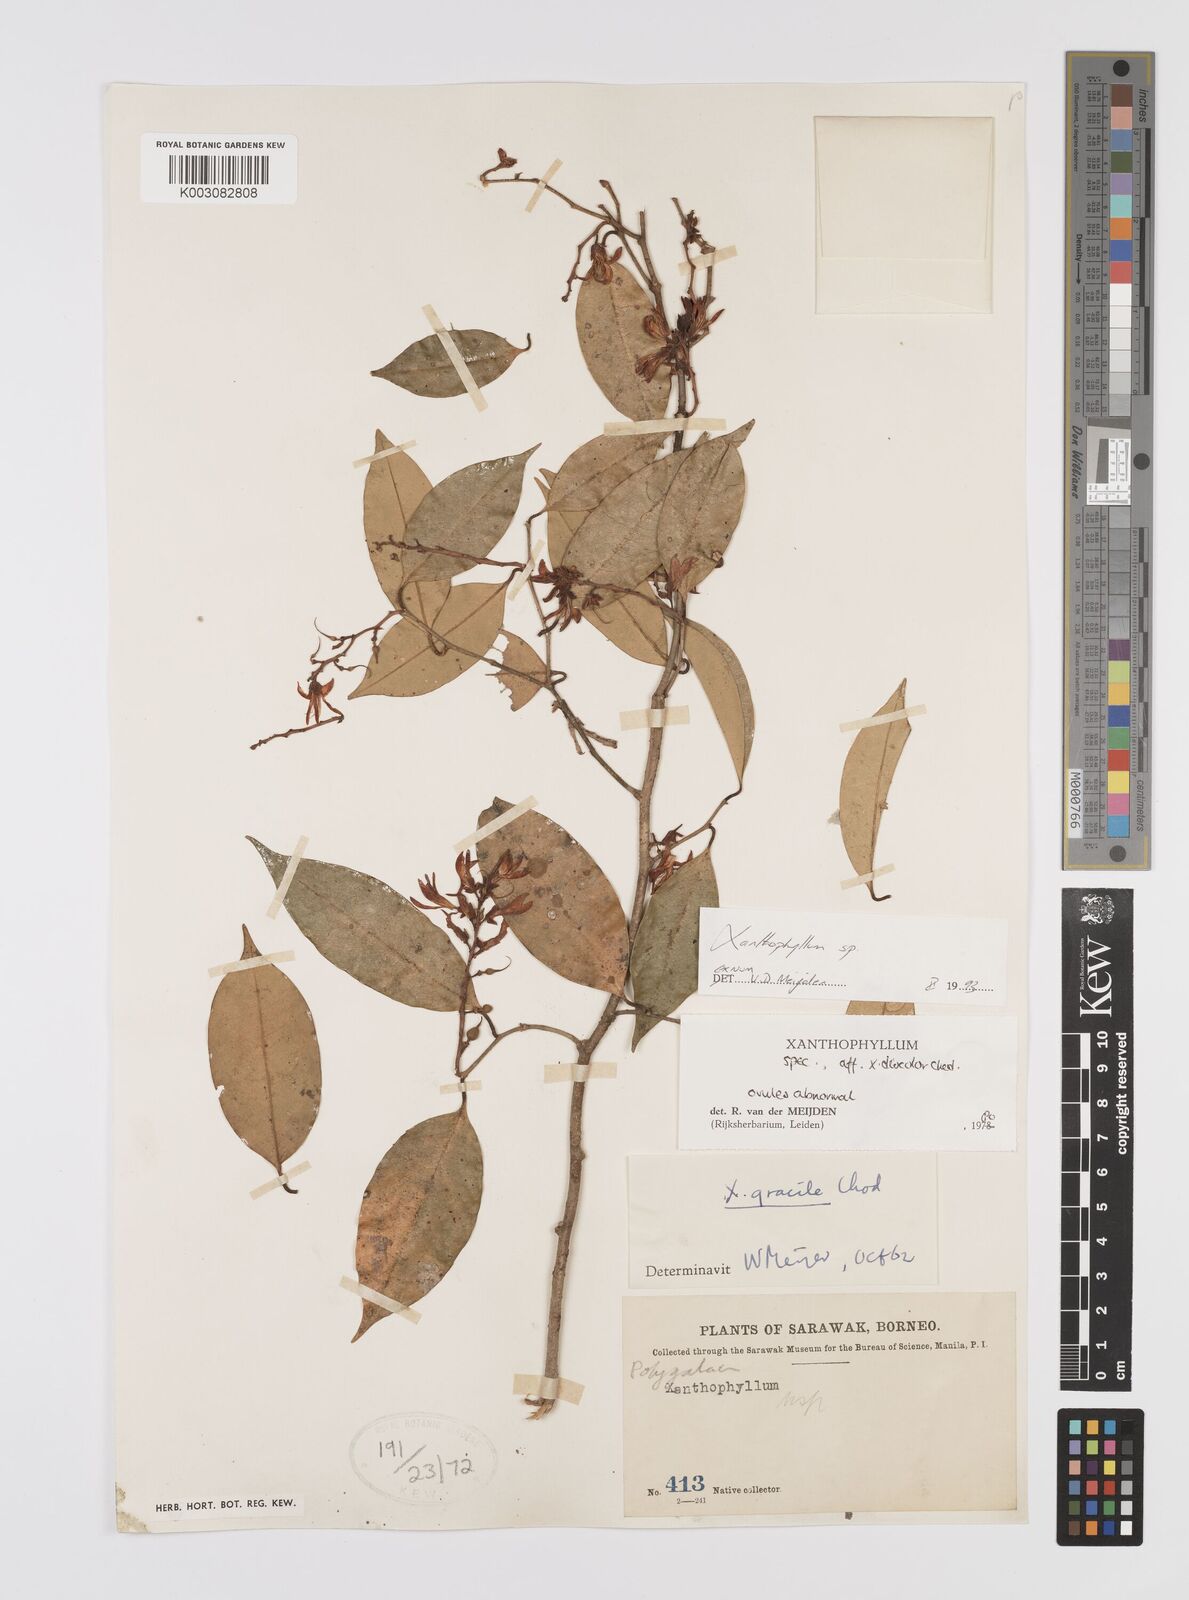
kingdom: Plantae
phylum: Tracheophyta
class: Magnoliopsida
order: Fabales
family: Polygalaceae
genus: Xanthophyllum
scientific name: Xanthophyllum
